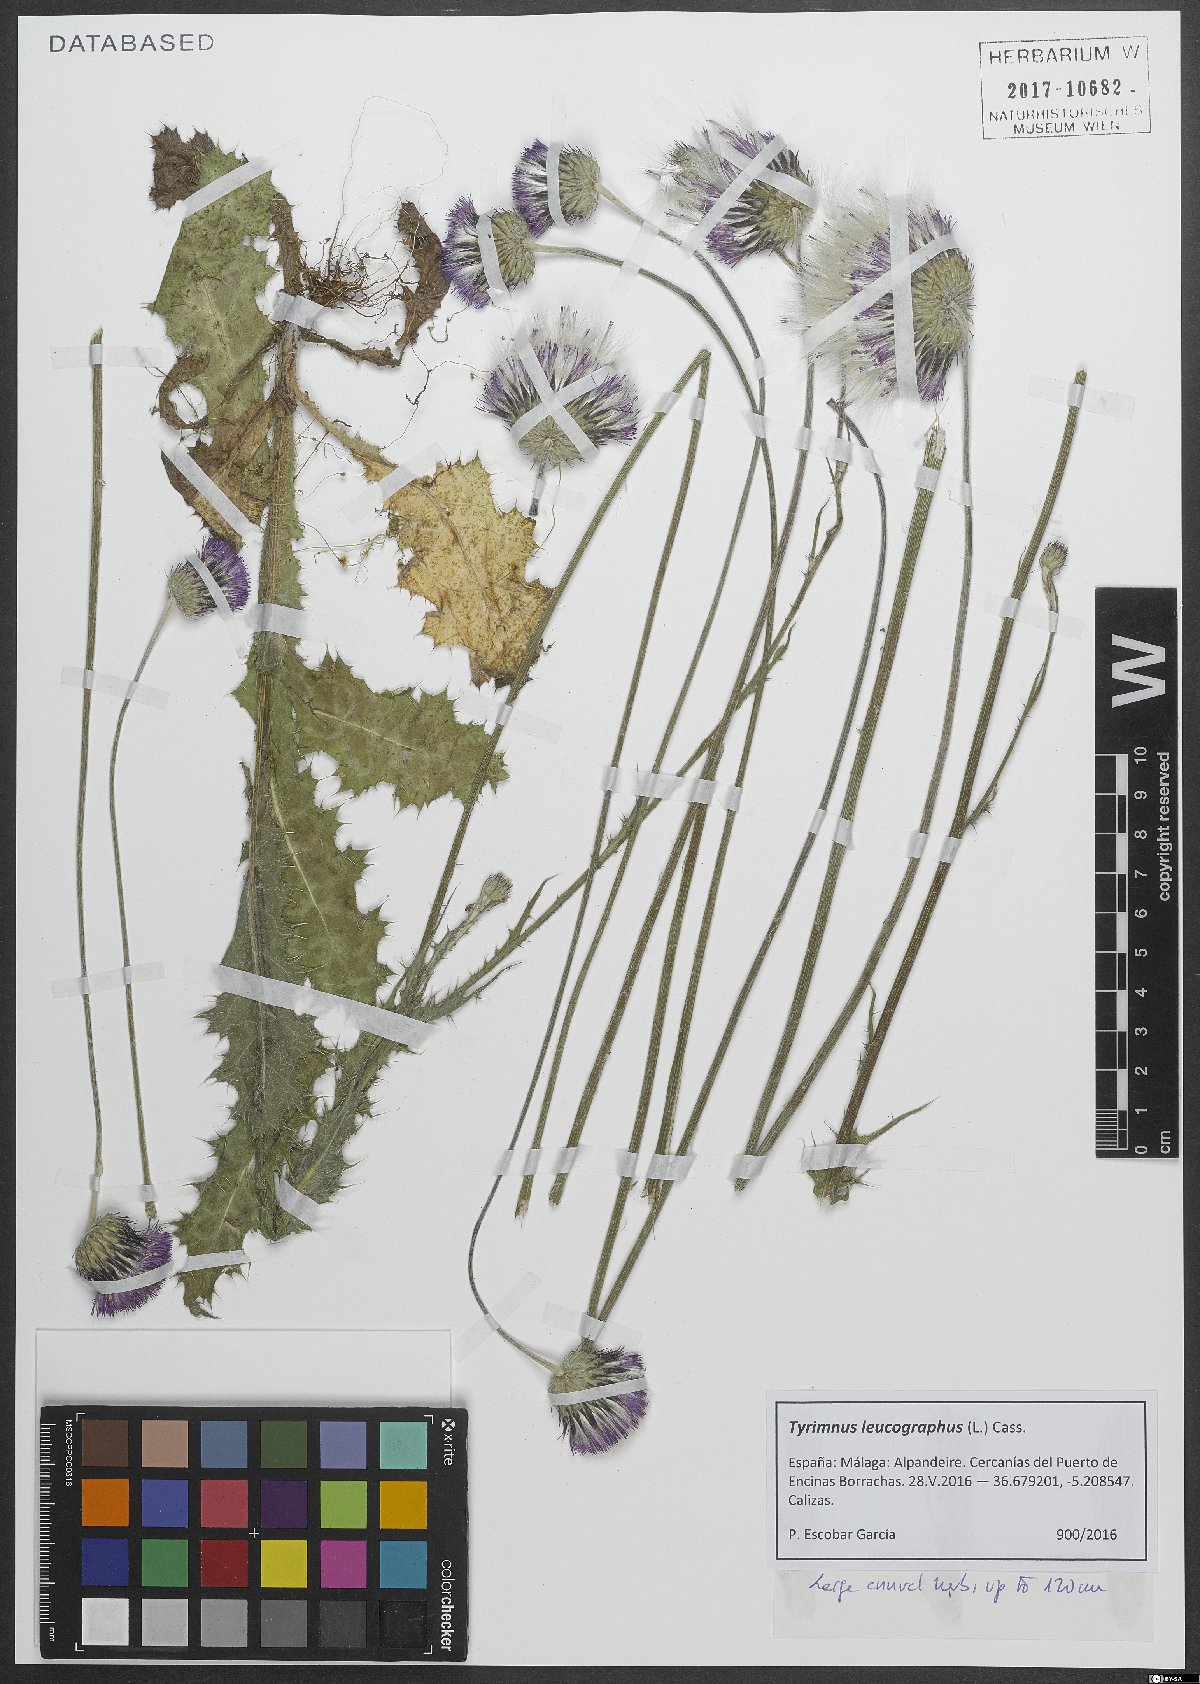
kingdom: Plantae
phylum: Tracheophyta
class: Magnoliopsida
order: Asterales
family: Asteraceae
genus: Tyrimnus
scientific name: Tyrimnus leucographus
